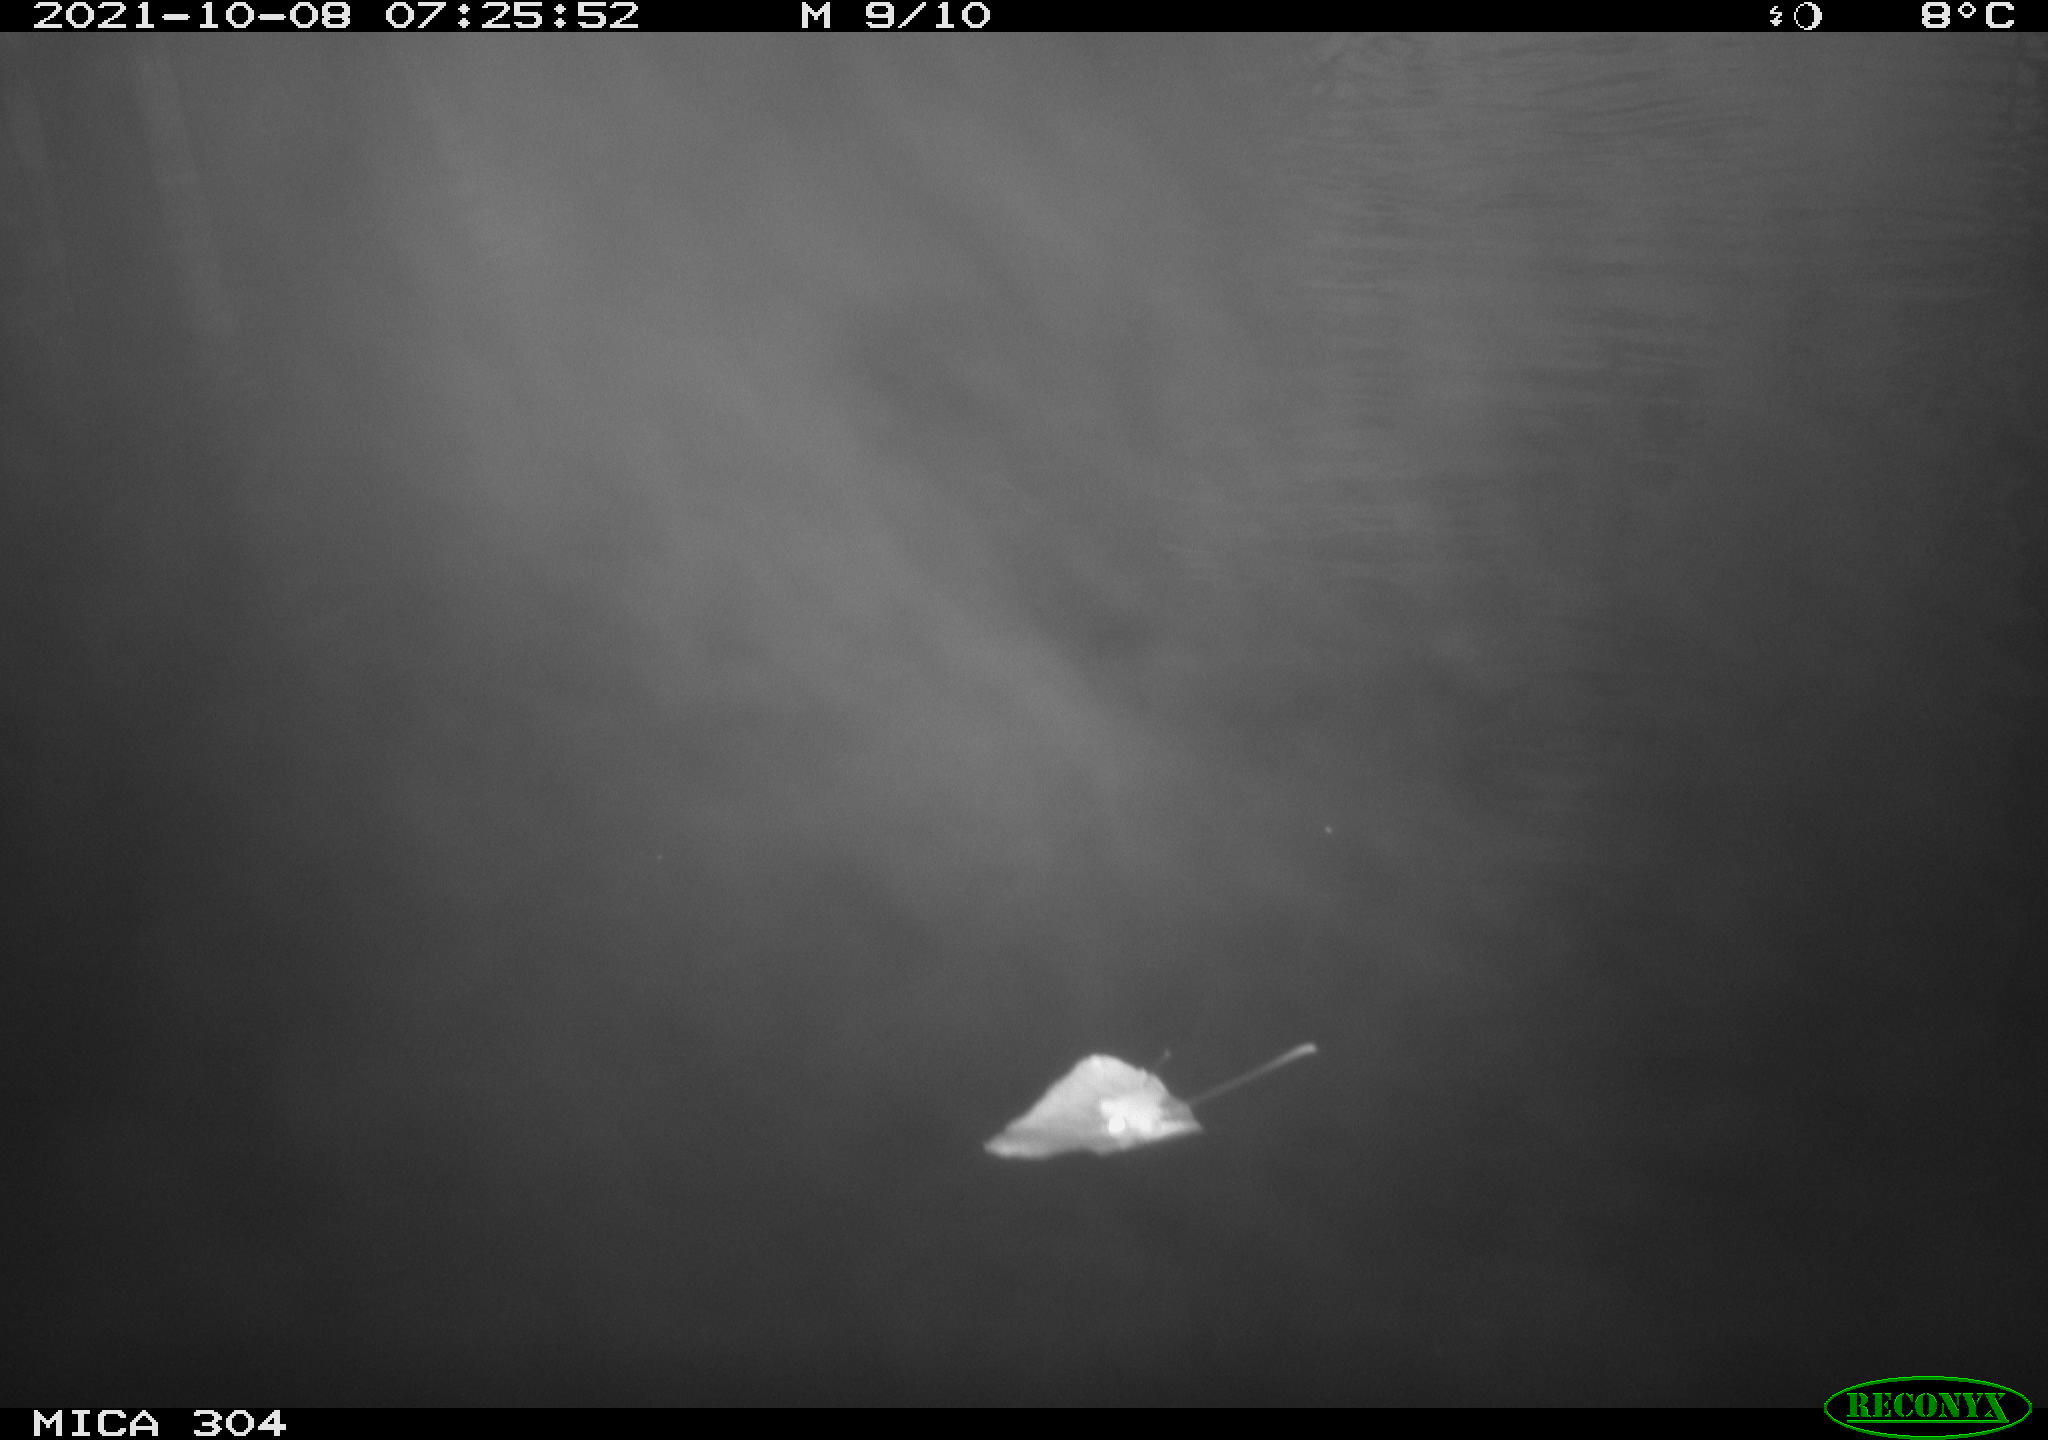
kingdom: Animalia
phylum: Chordata
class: Aves
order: Gruiformes
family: Rallidae
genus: Gallinula
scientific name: Gallinula chloropus
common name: Common moorhen
